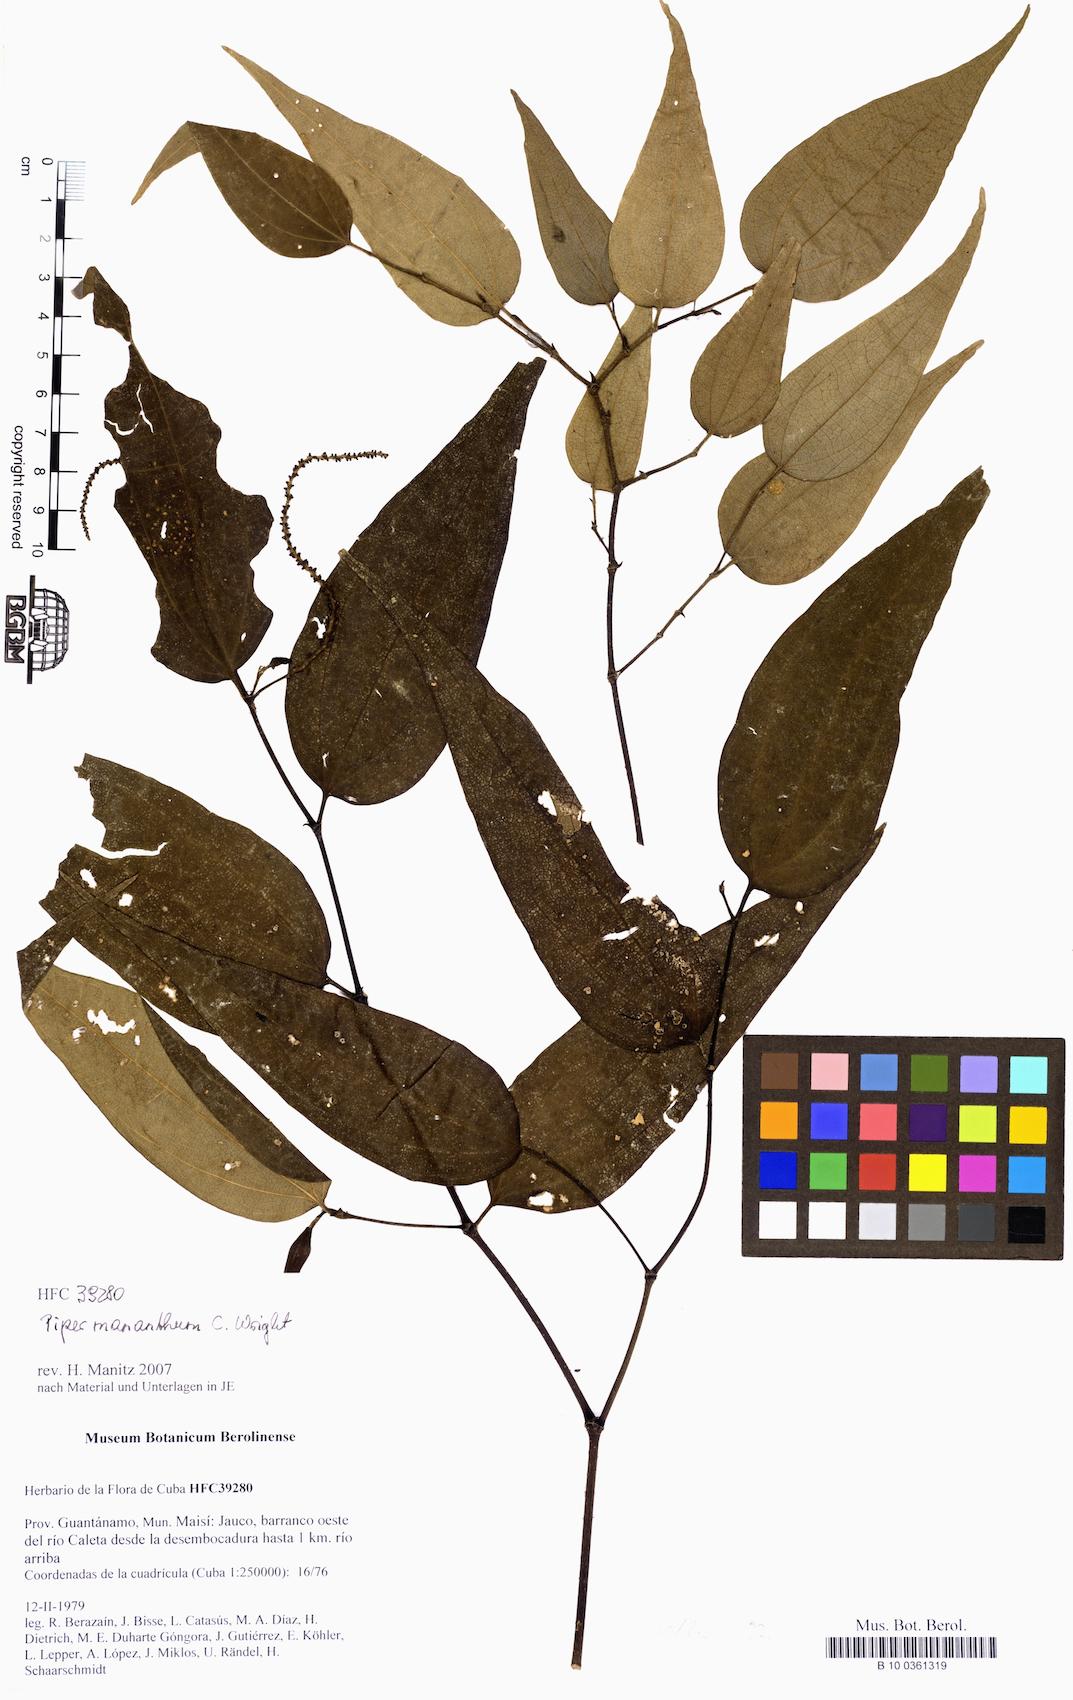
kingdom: Plantae
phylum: Tracheophyta
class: Magnoliopsida
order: Piperales
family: Piperaceae
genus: Piper
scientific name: Piper mananthum
